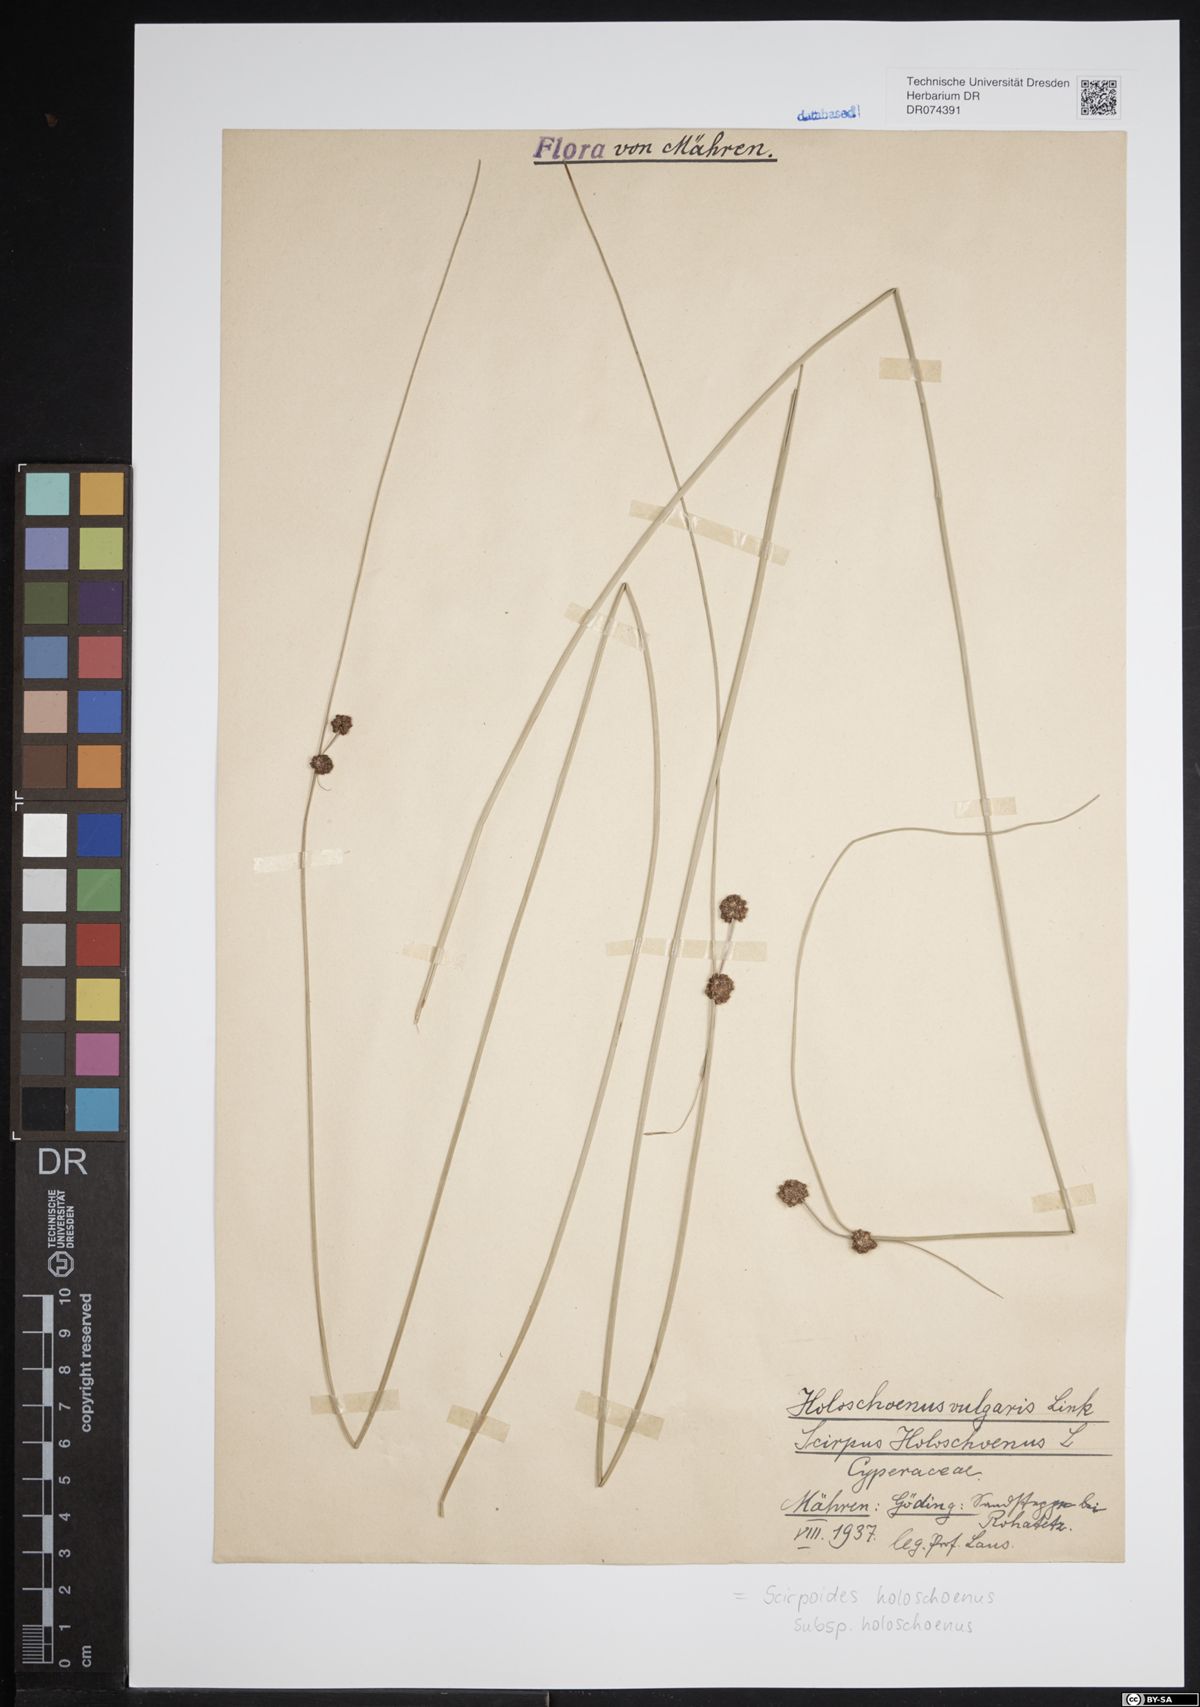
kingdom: Plantae
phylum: Tracheophyta
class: Liliopsida
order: Poales
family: Cyperaceae
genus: Scirpoides
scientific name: Scirpoides holoschoenus
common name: Round-headed club-rush
